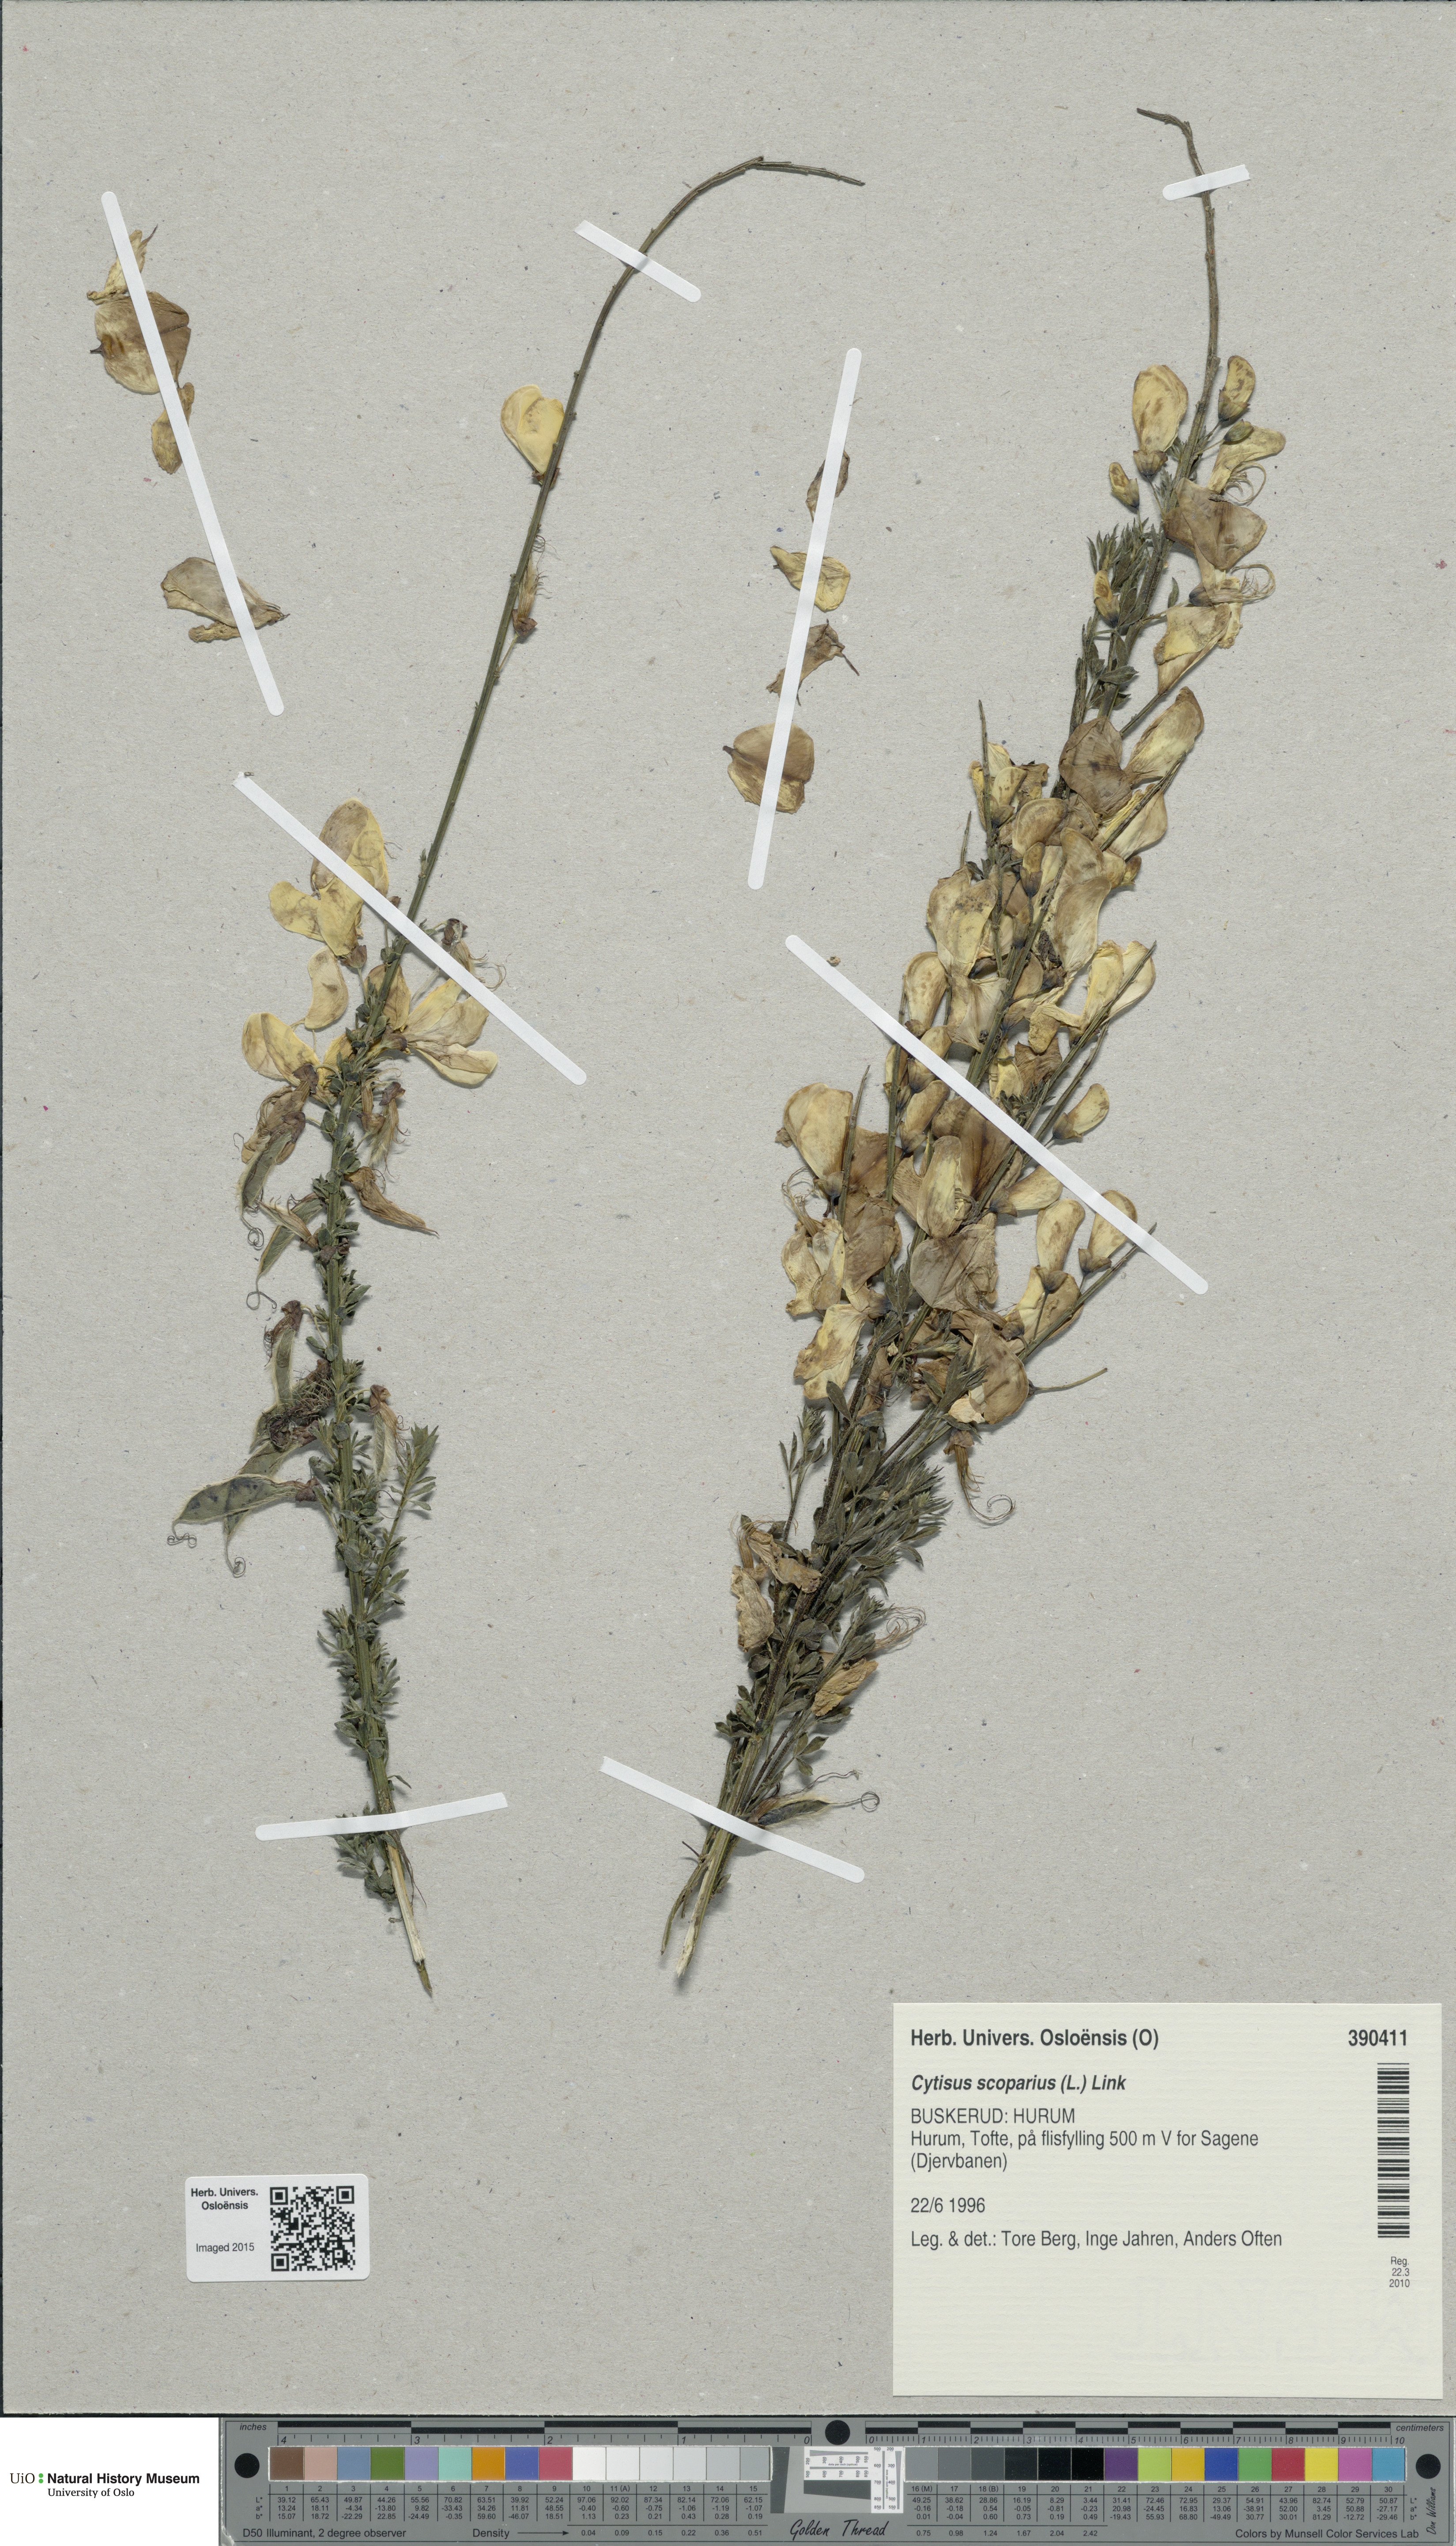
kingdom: Plantae
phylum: Tracheophyta
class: Magnoliopsida
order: Fabales
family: Fabaceae
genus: Cytisus
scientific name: Cytisus scoparius
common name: Scotch broom
